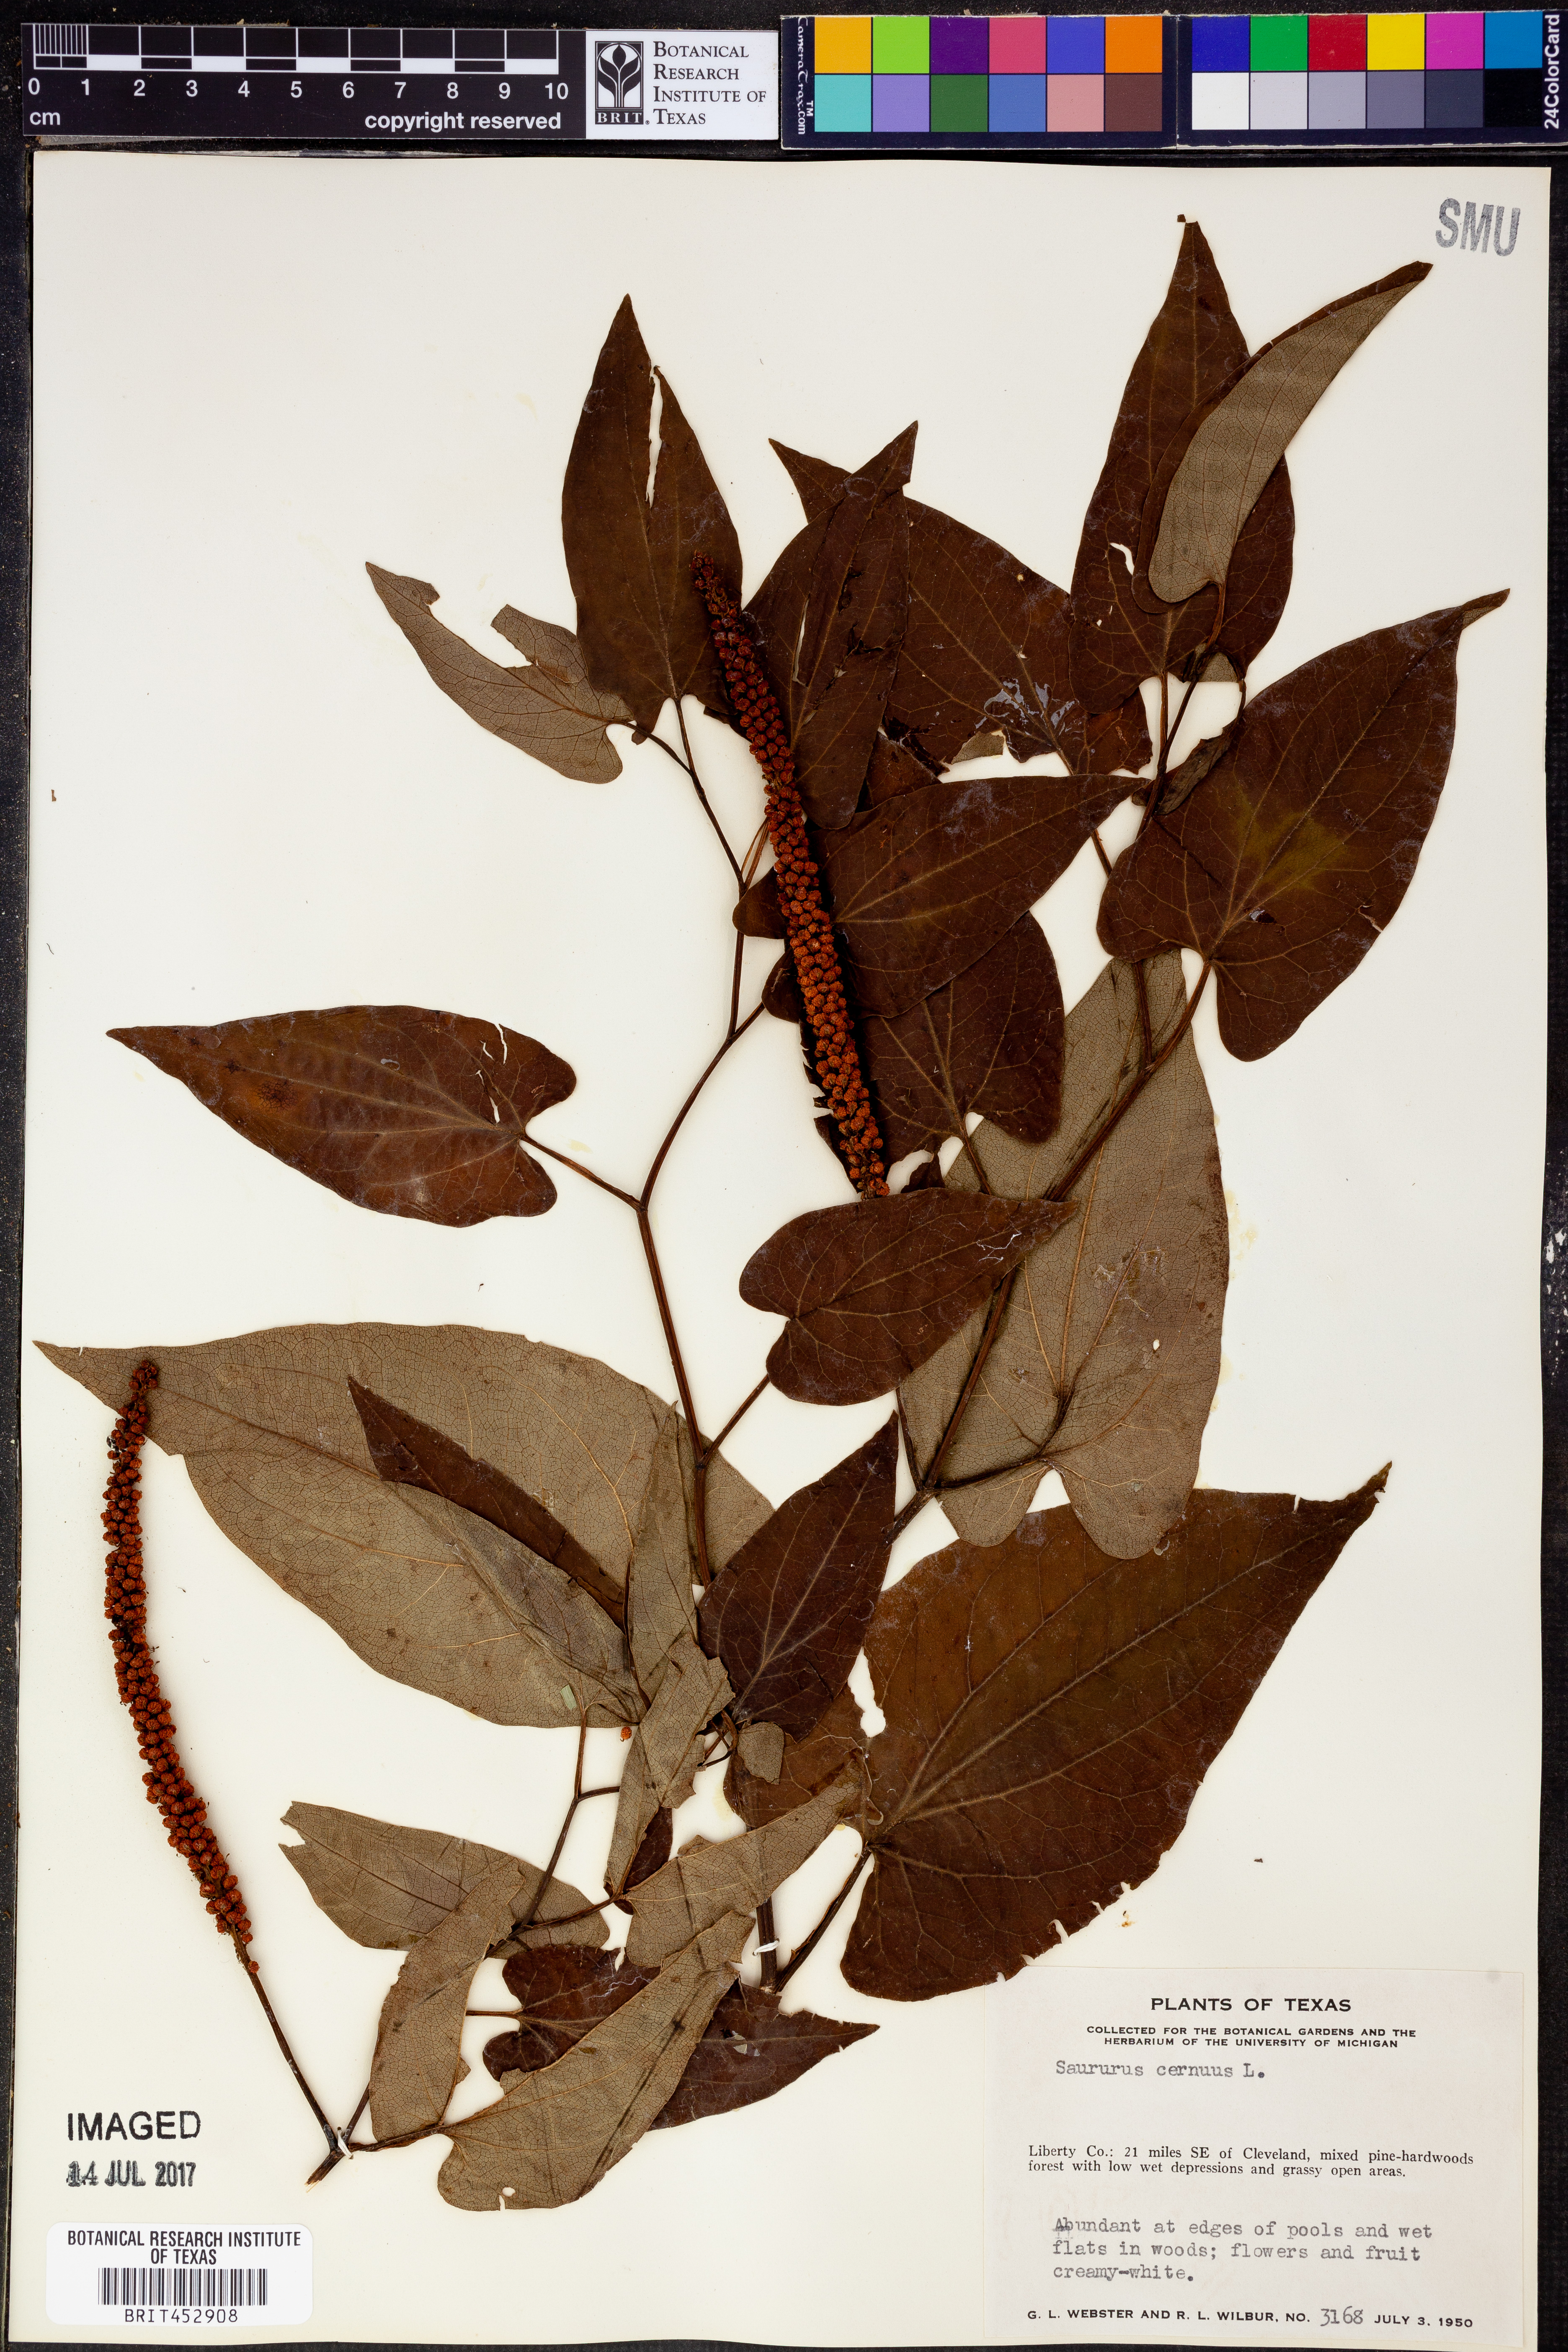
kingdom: Plantae
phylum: Tracheophyta
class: Magnoliopsida
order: Piperales
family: Saururaceae
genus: Saururus
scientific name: Saururus cernuus
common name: Lizard's-tail
